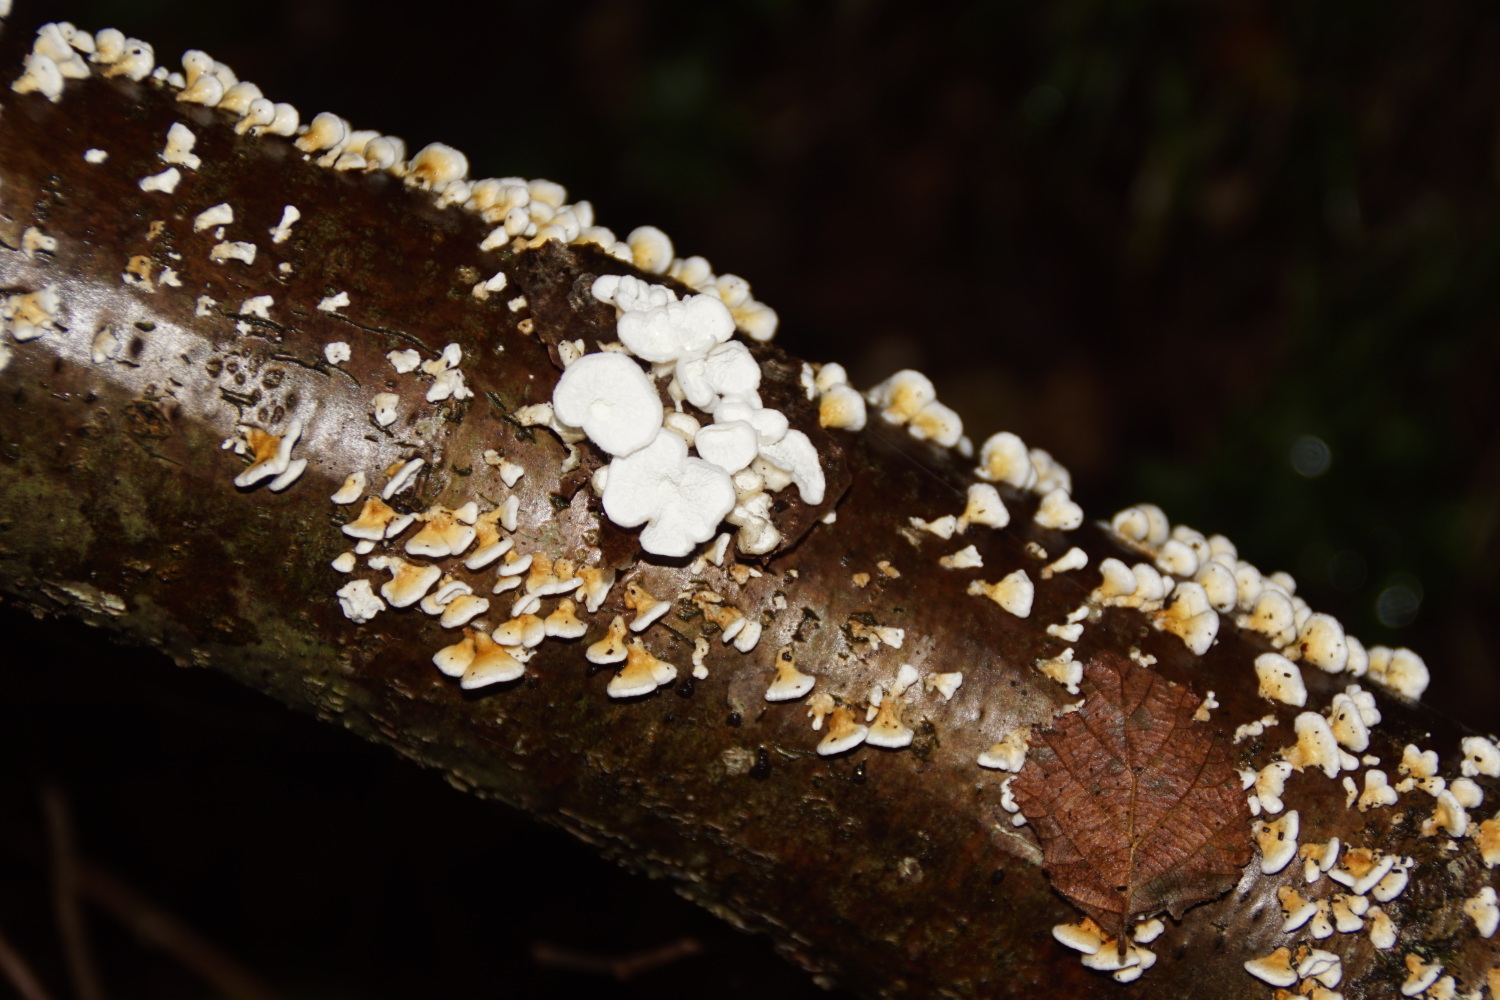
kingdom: Fungi
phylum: Basidiomycota
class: Agaricomycetes
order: Amylocorticiales
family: Amylocorticiaceae
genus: Plicaturopsis
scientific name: Plicaturopsis crispa
